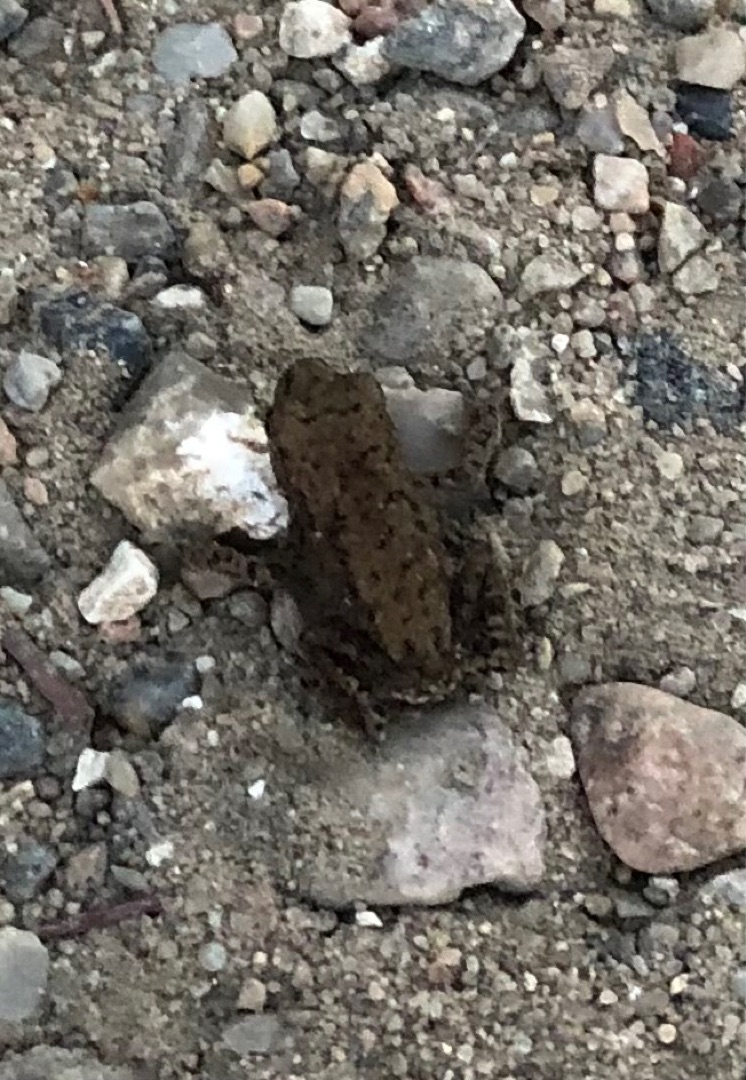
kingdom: Animalia
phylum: Chordata
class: Amphibia
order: Anura
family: Bufonidae
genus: Bufo
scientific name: Bufo bufo
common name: Skrubtudse
